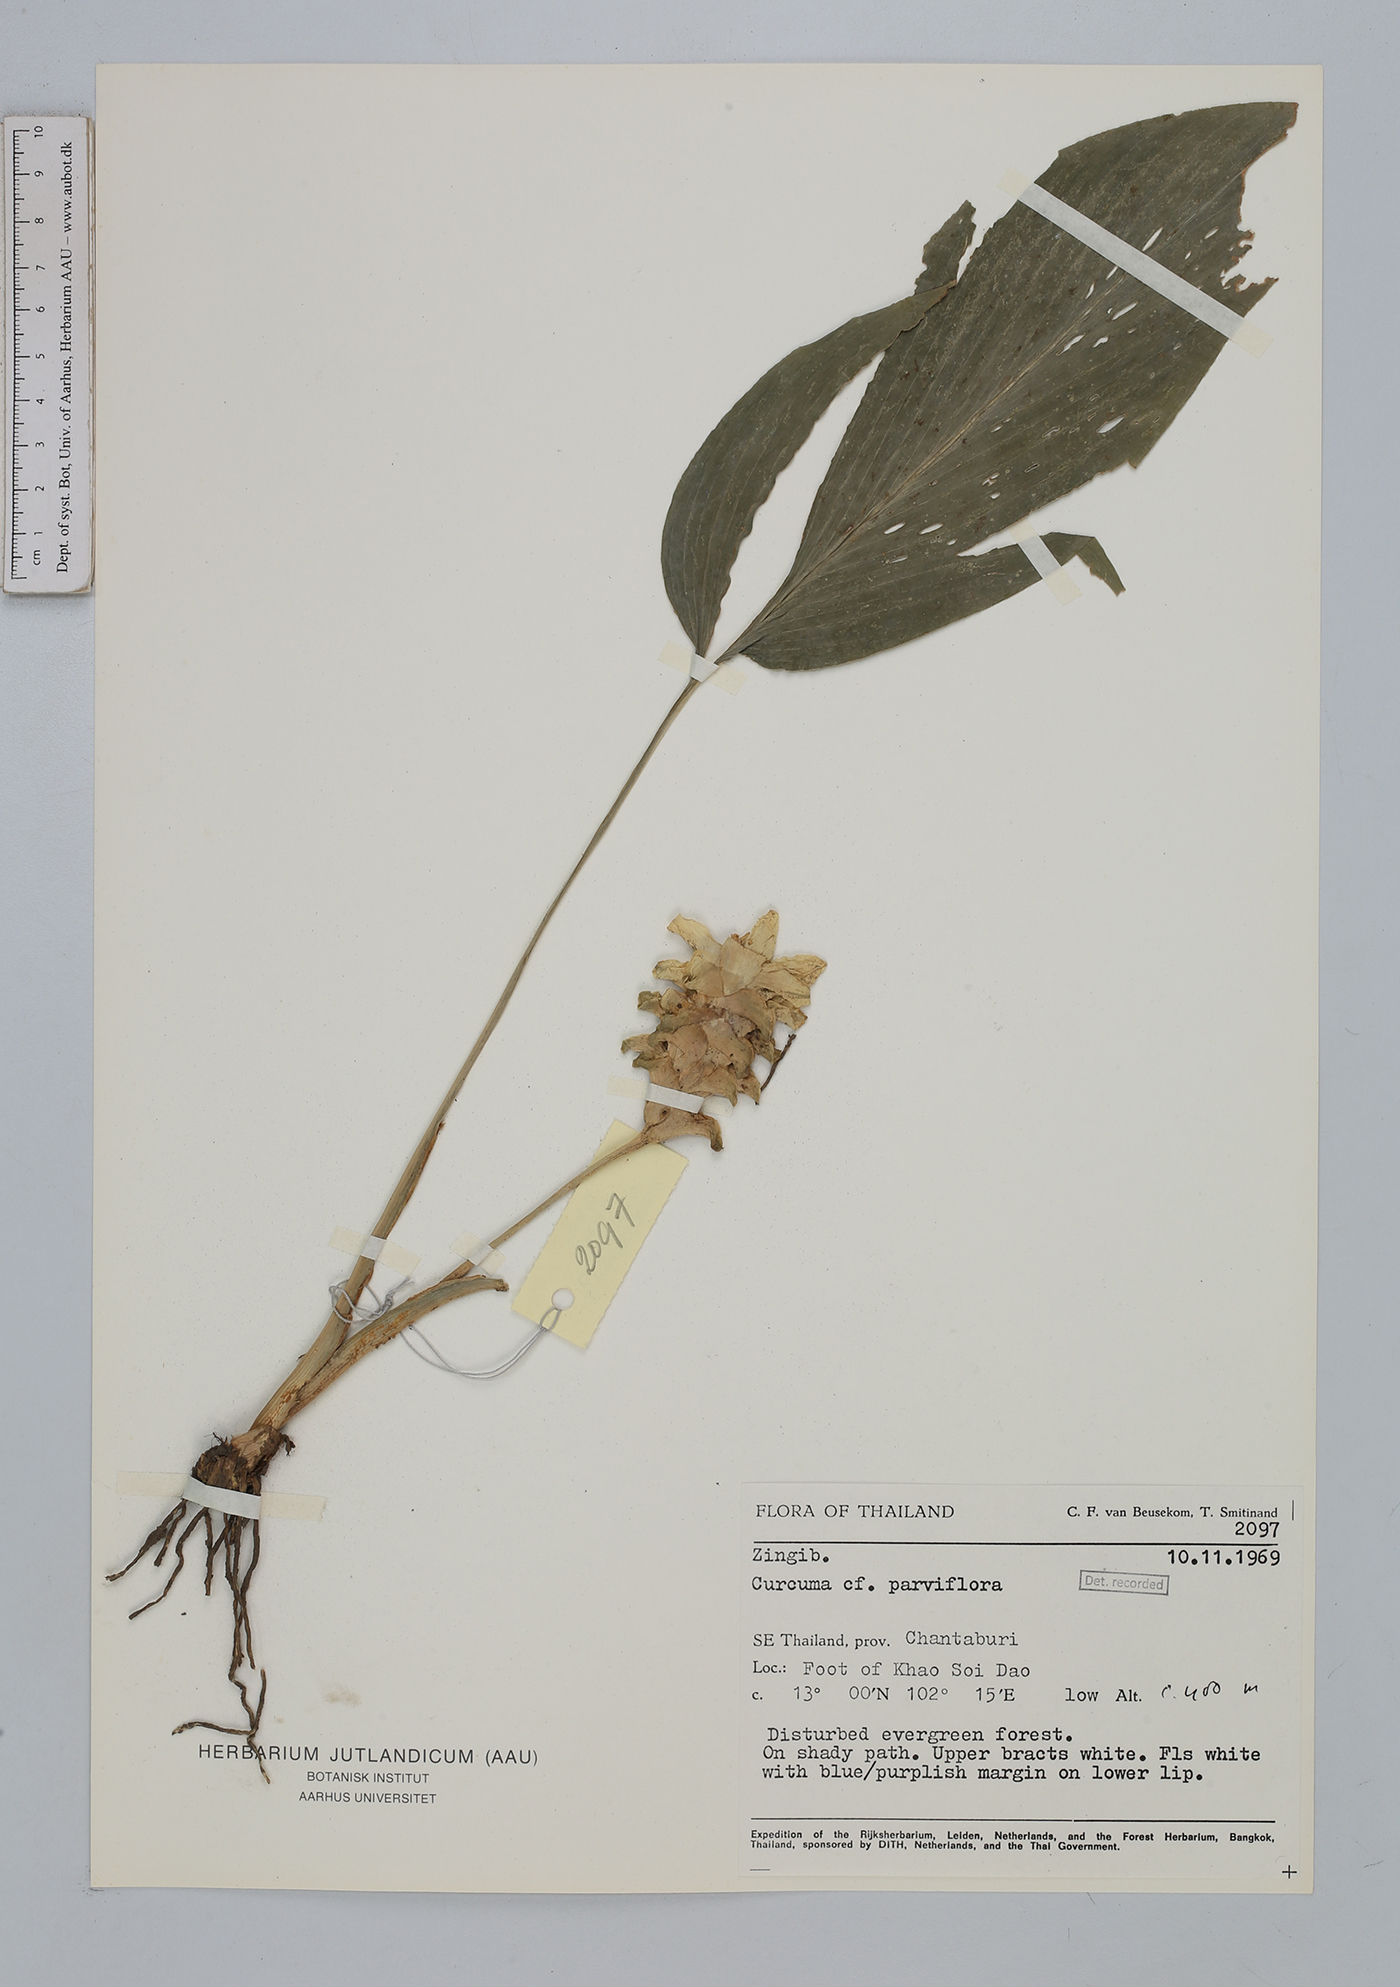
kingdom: Plantae
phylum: Tracheophyta
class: Liliopsida
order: Zingiberales
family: Zingiberaceae
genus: Curcuma
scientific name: Curcuma parviflora
